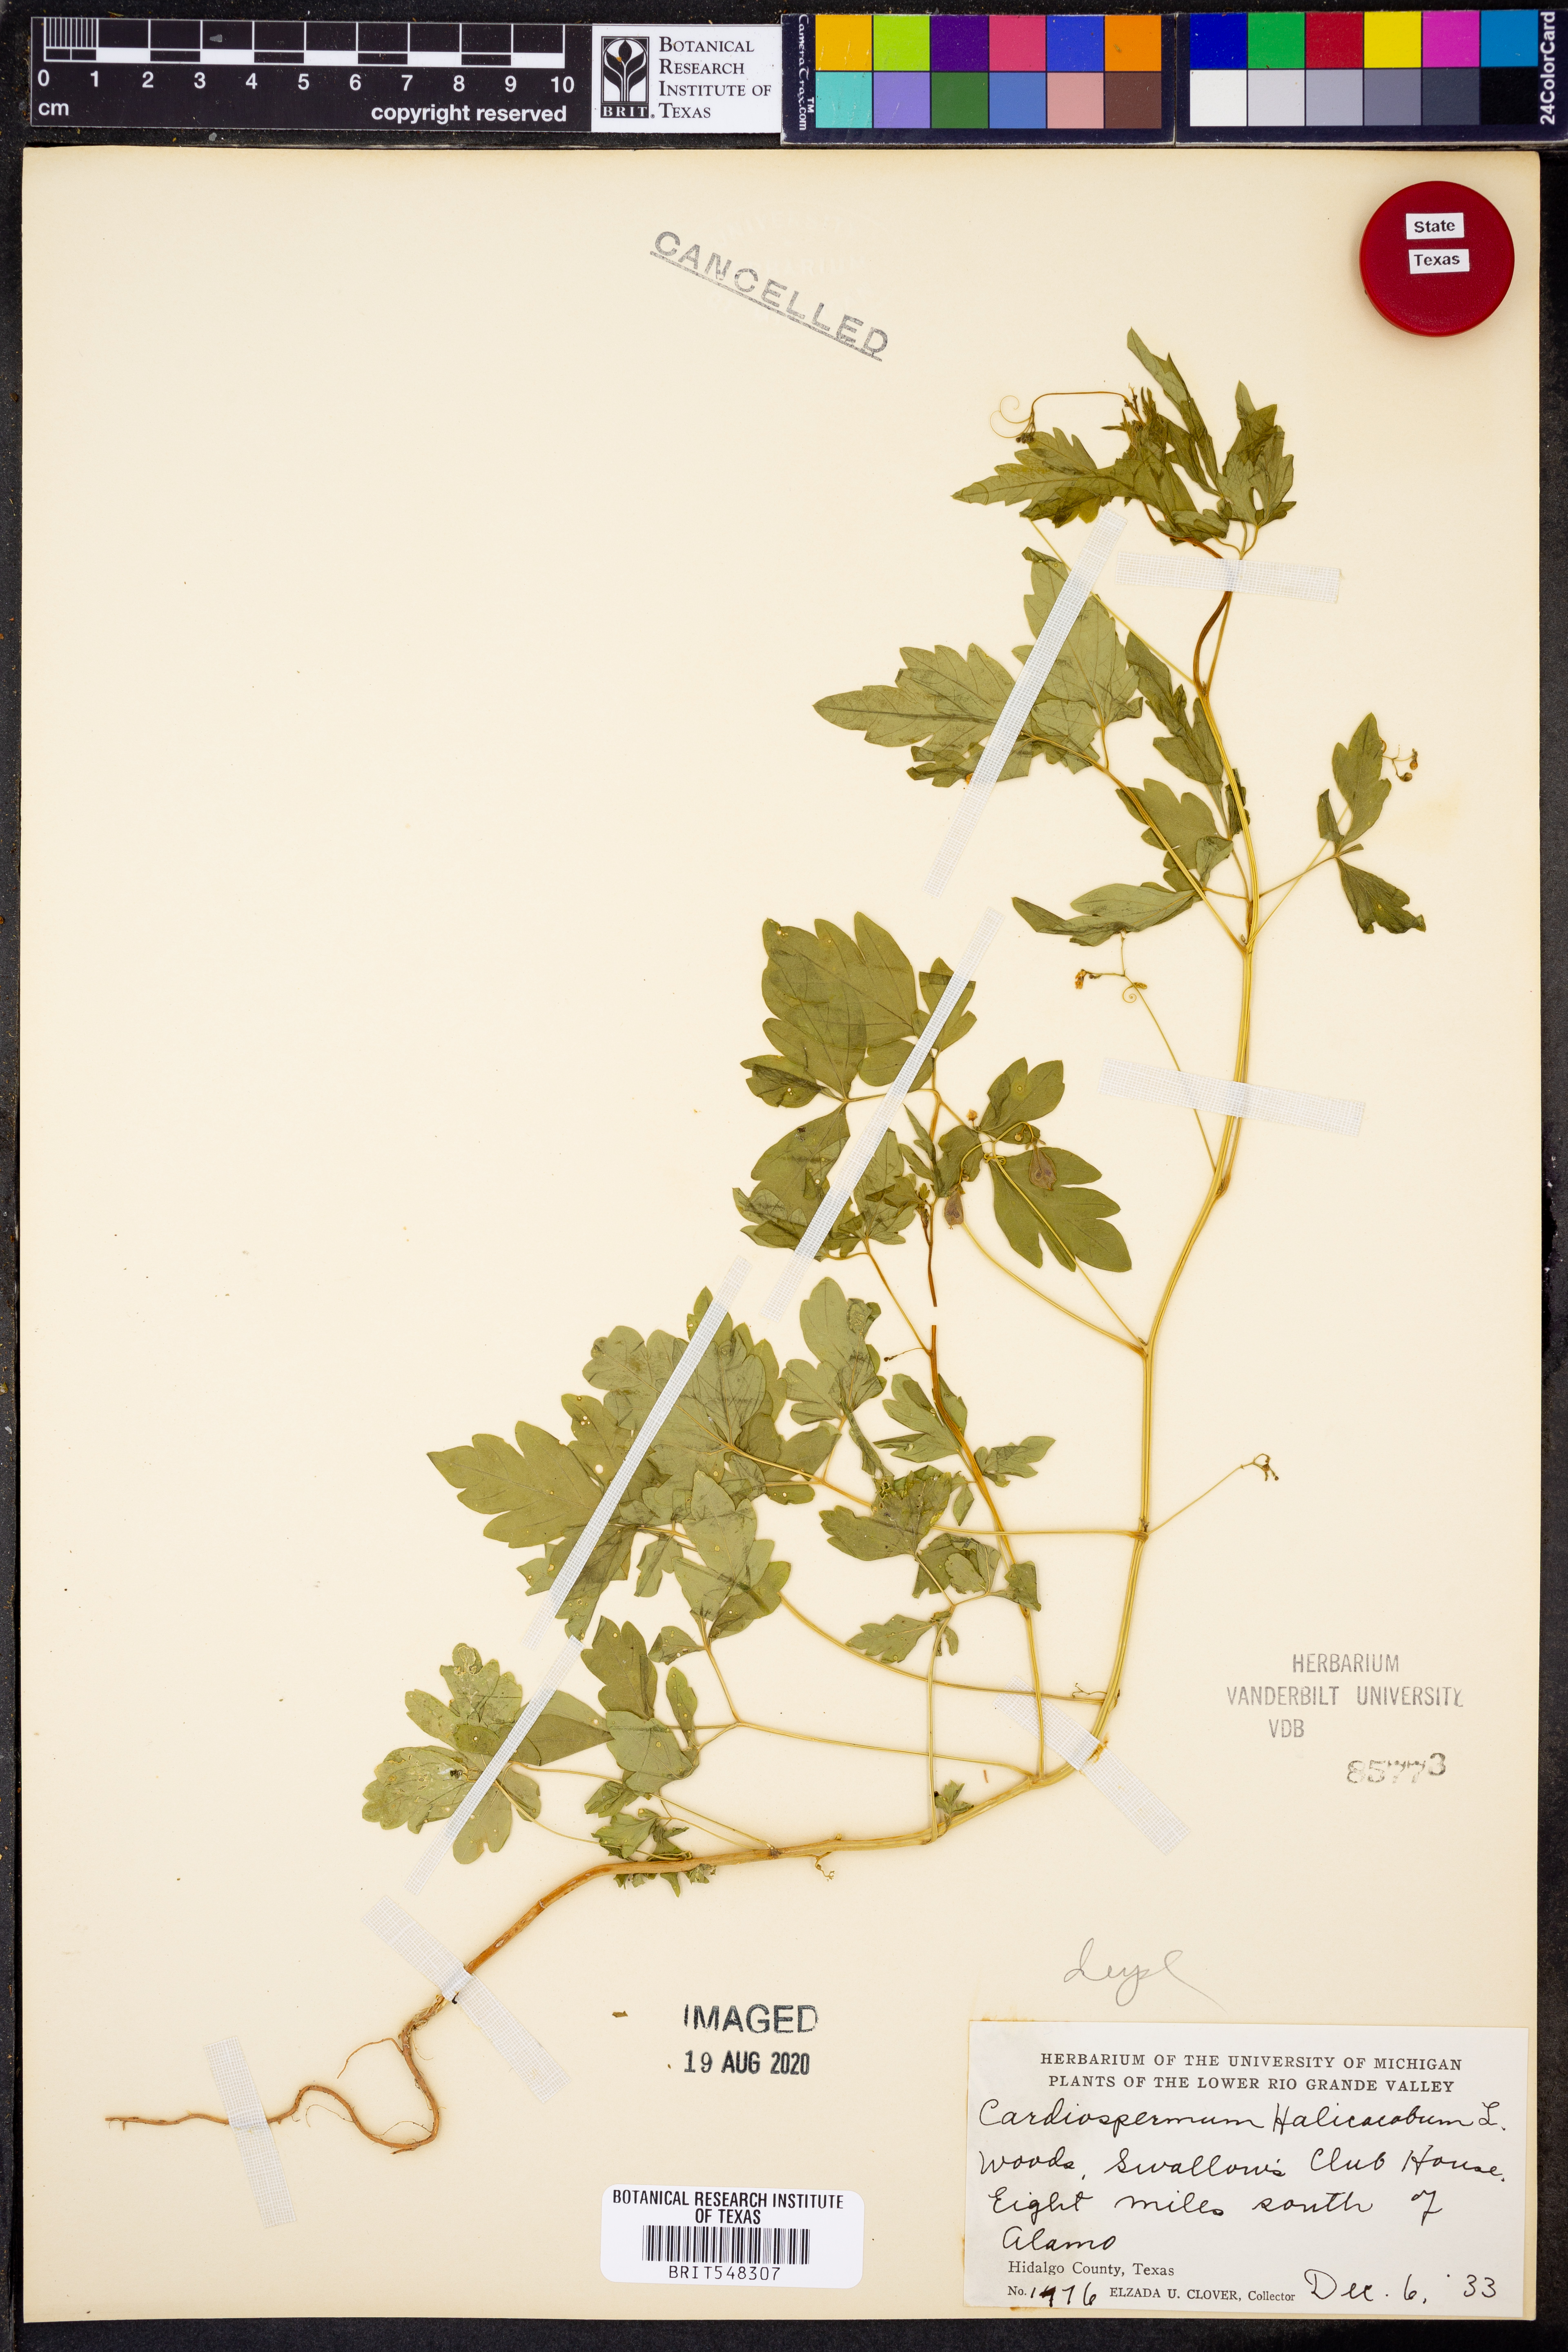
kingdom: Plantae
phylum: Tracheophyta
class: Magnoliopsida
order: Sapindales
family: Sapindaceae
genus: Cardiospermum
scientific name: Cardiospermum halicacabum
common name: Balloon vine
